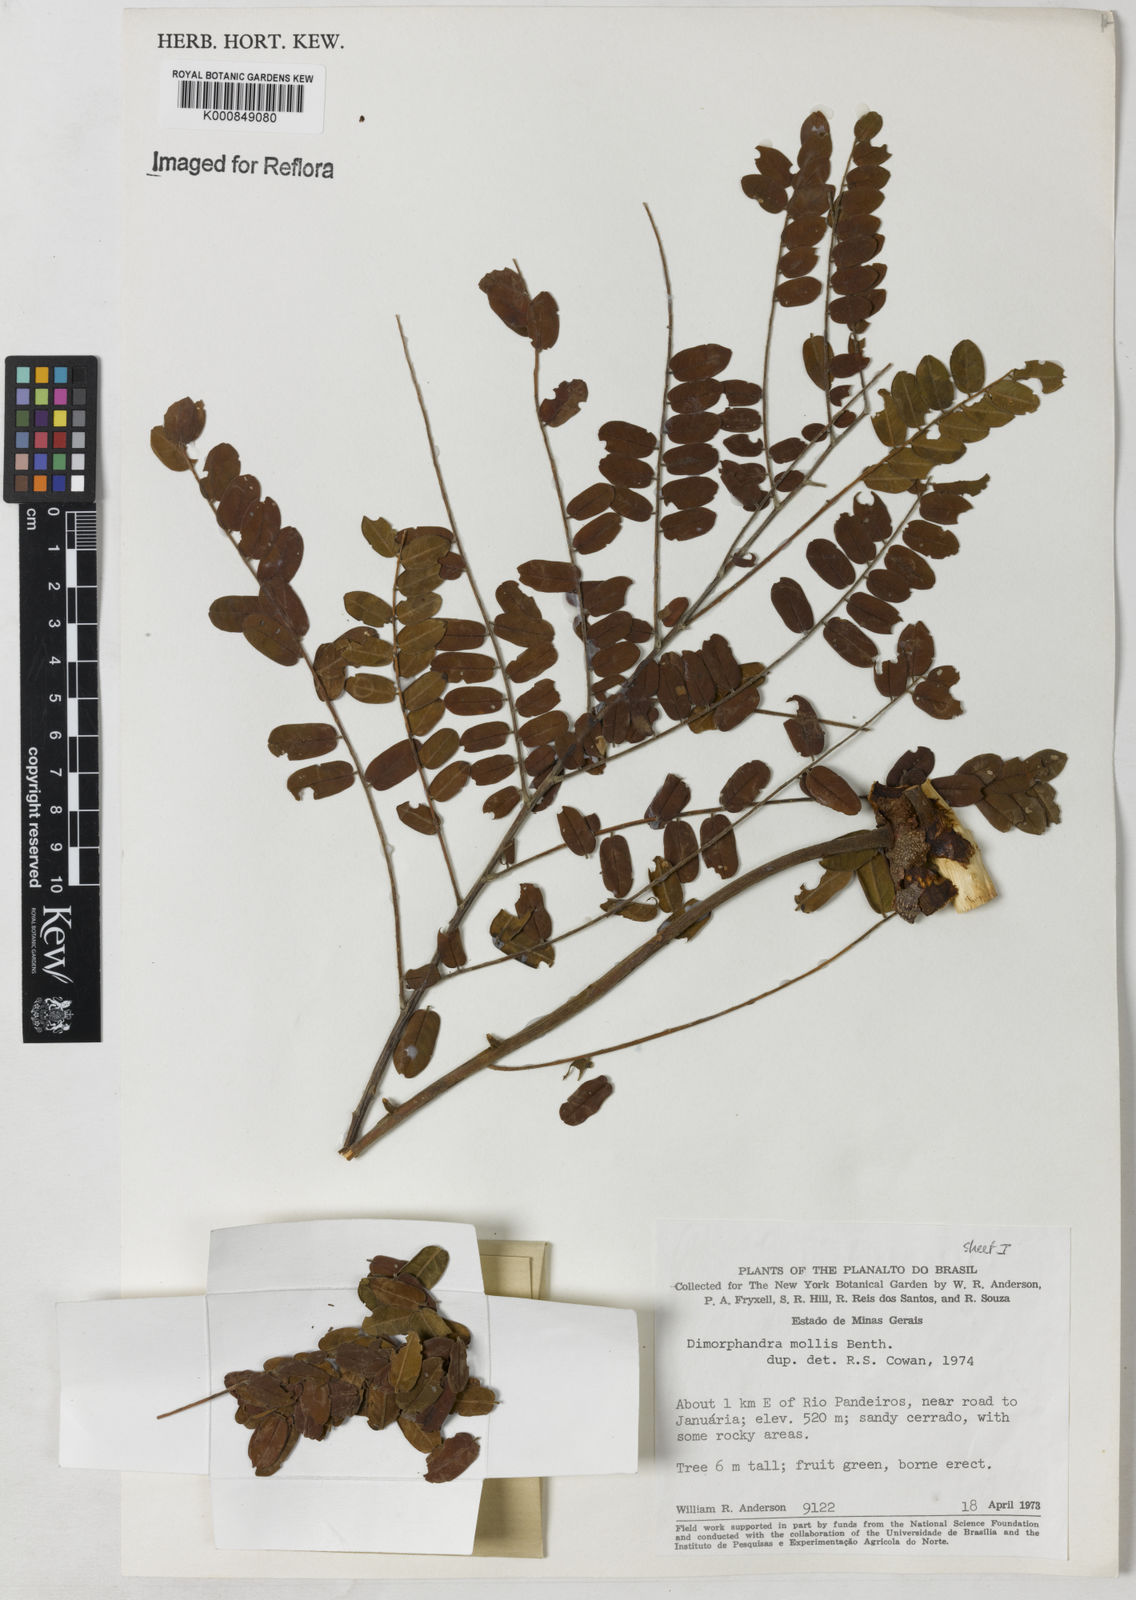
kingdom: Plantae
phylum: Tracheophyta
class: Magnoliopsida
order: Fabales
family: Fabaceae
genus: Dimorphandra
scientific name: Dimorphandra mollis
